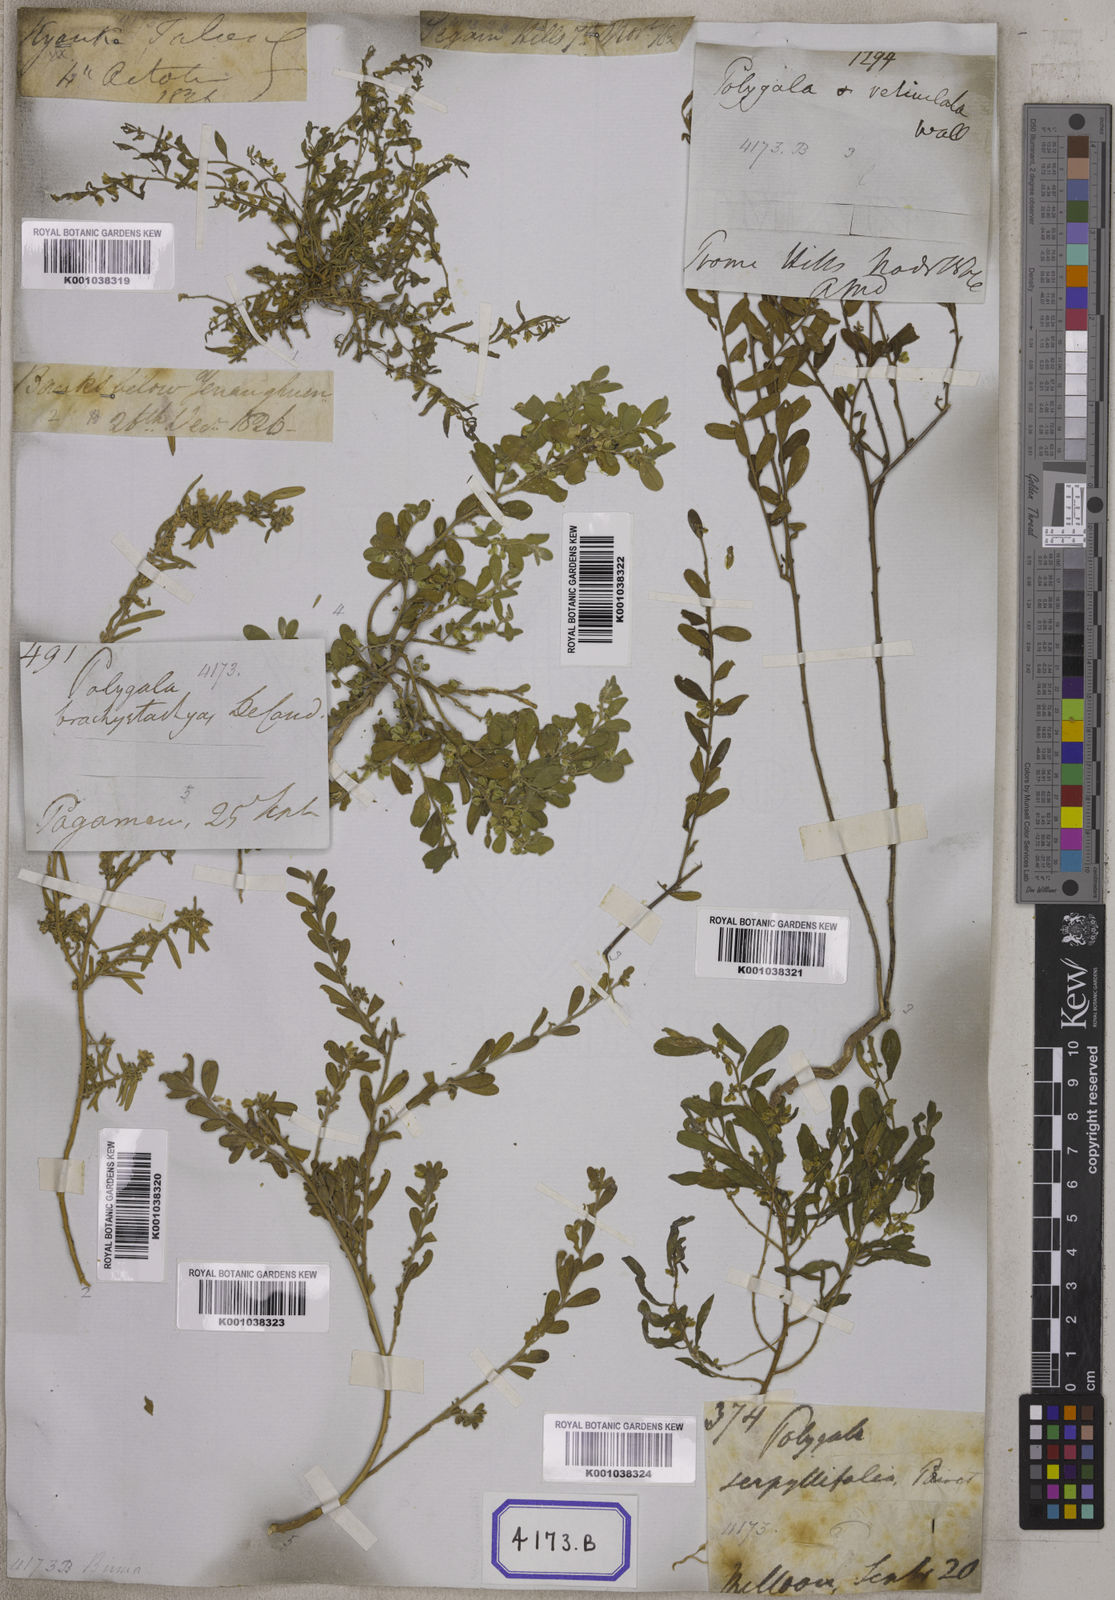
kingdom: Plantae
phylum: Tracheophyta
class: Magnoliopsida
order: Fabales
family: Polygalaceae
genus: Polygala
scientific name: Polygala
